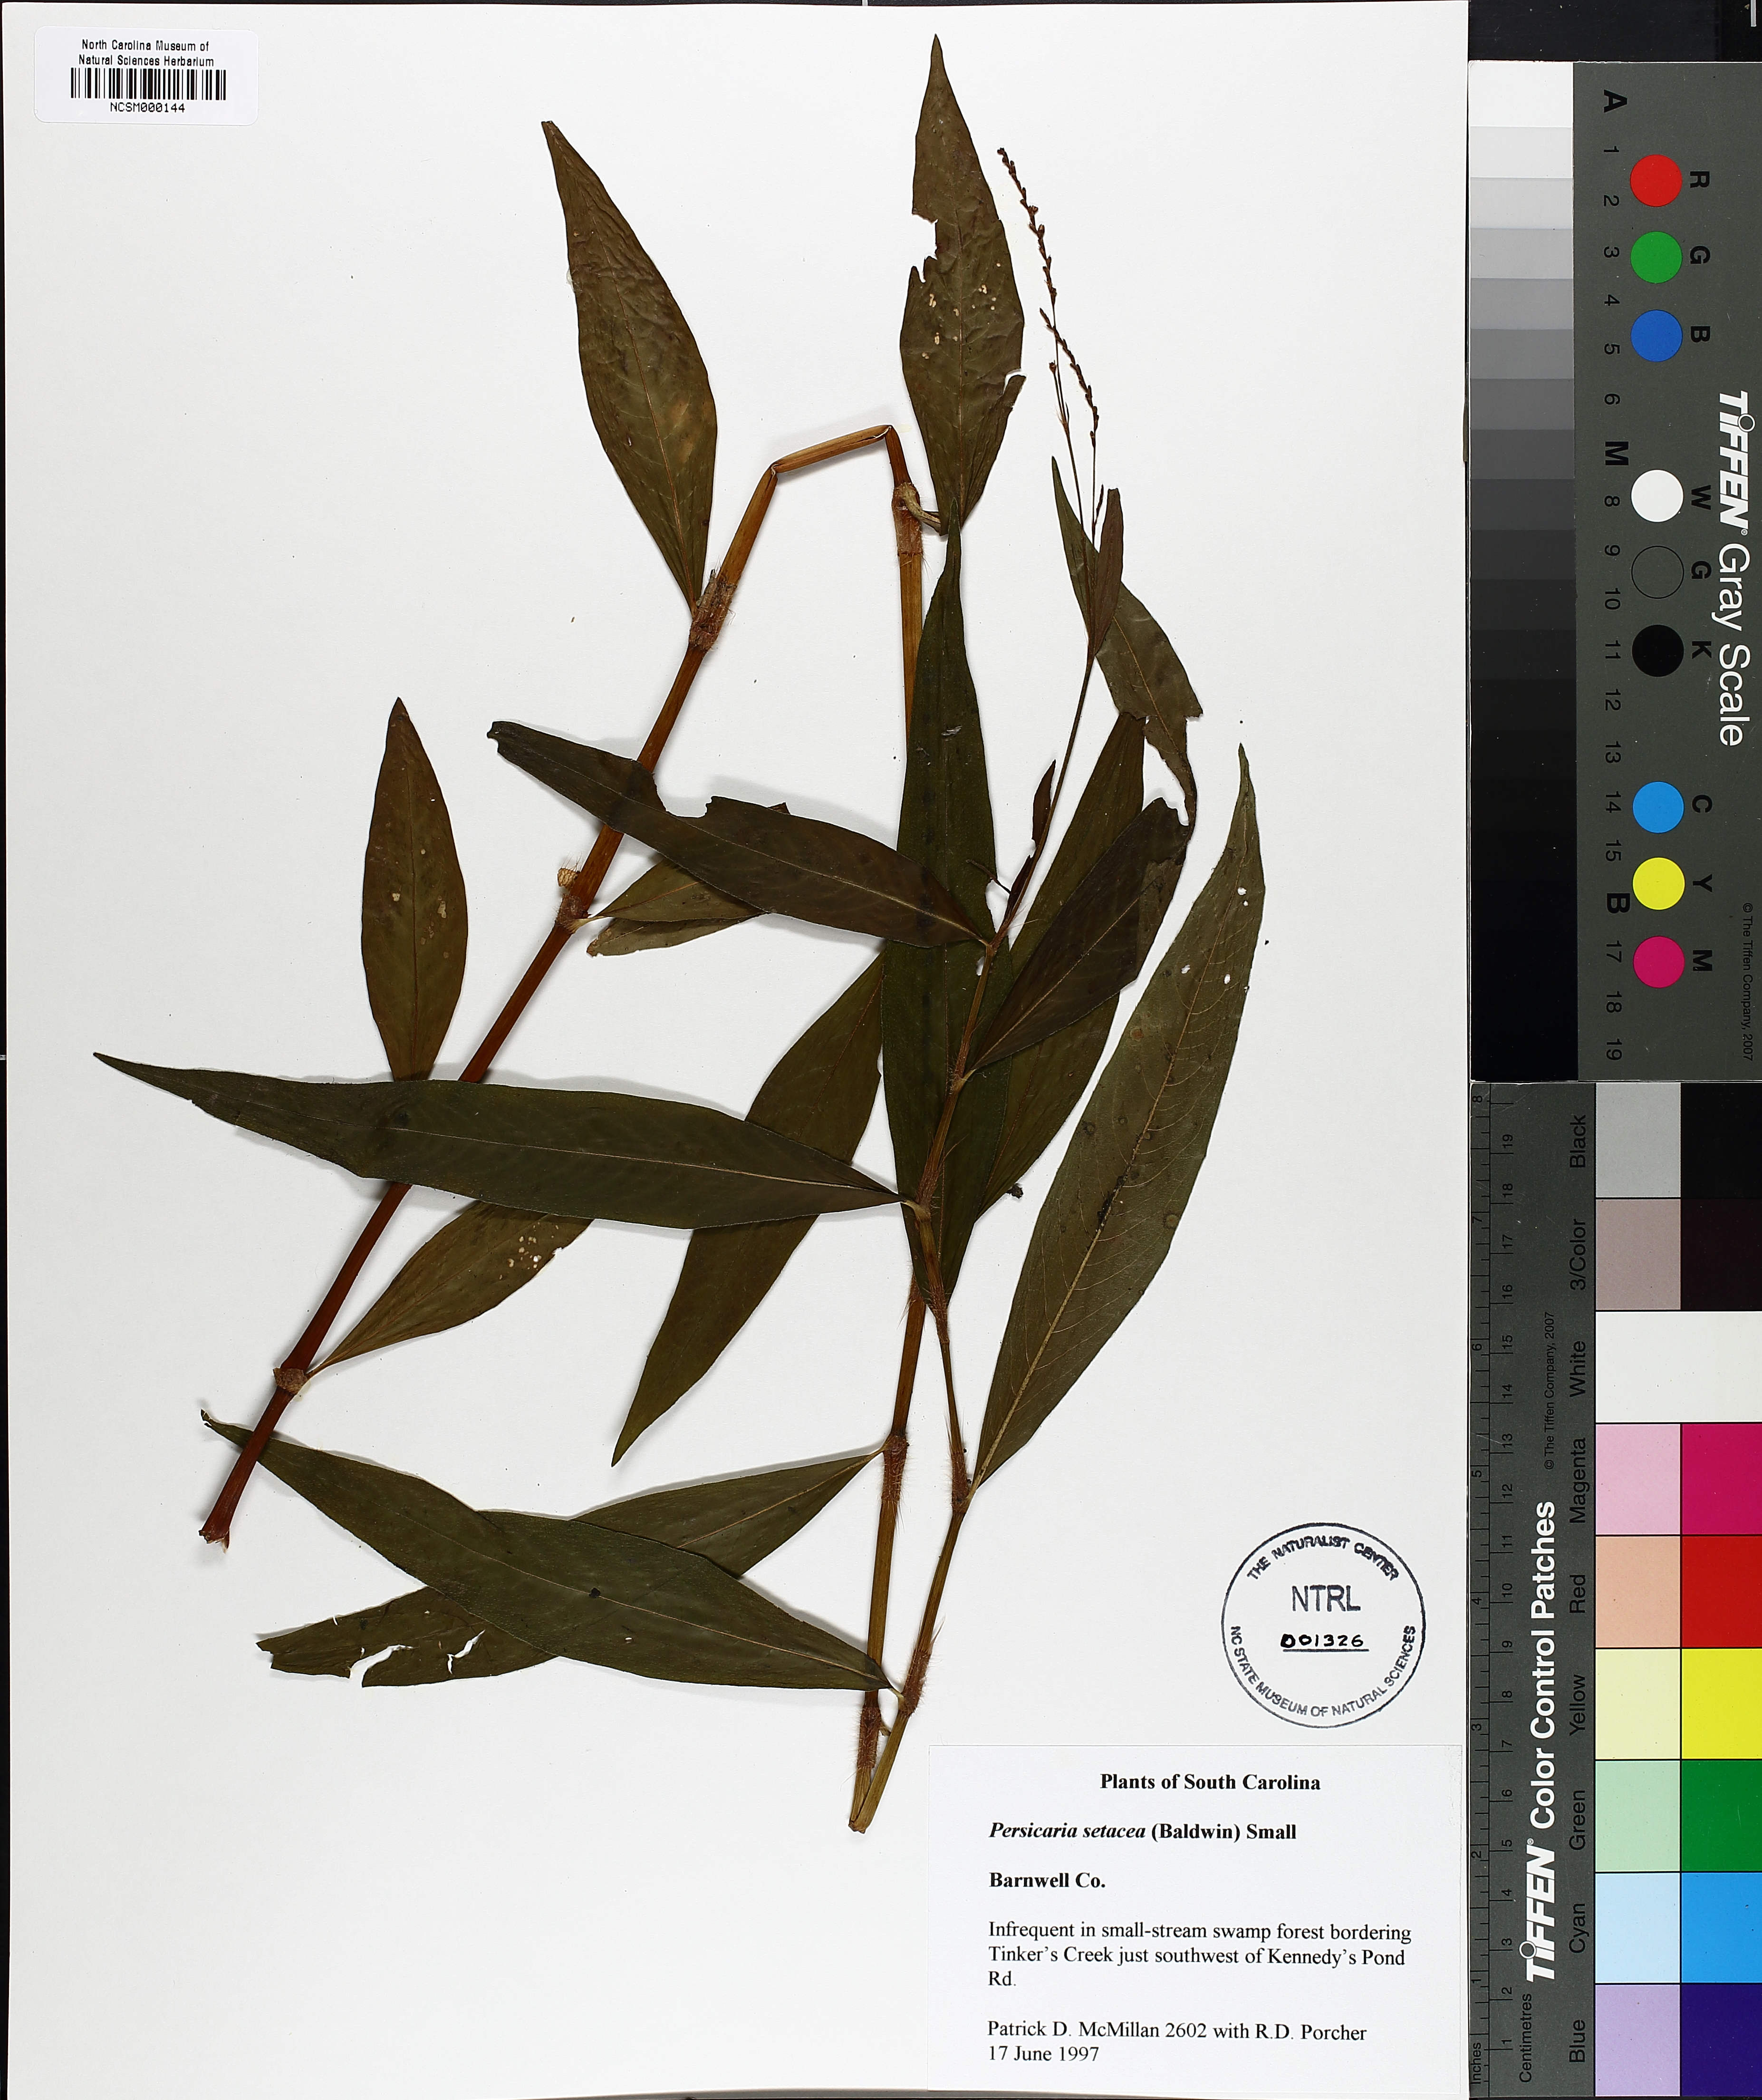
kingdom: Plantae
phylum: Tracheophyta
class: Magnoliopsida
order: Caryophyllales
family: Polygonaceae
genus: Persicaria
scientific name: Persicaria setacea
